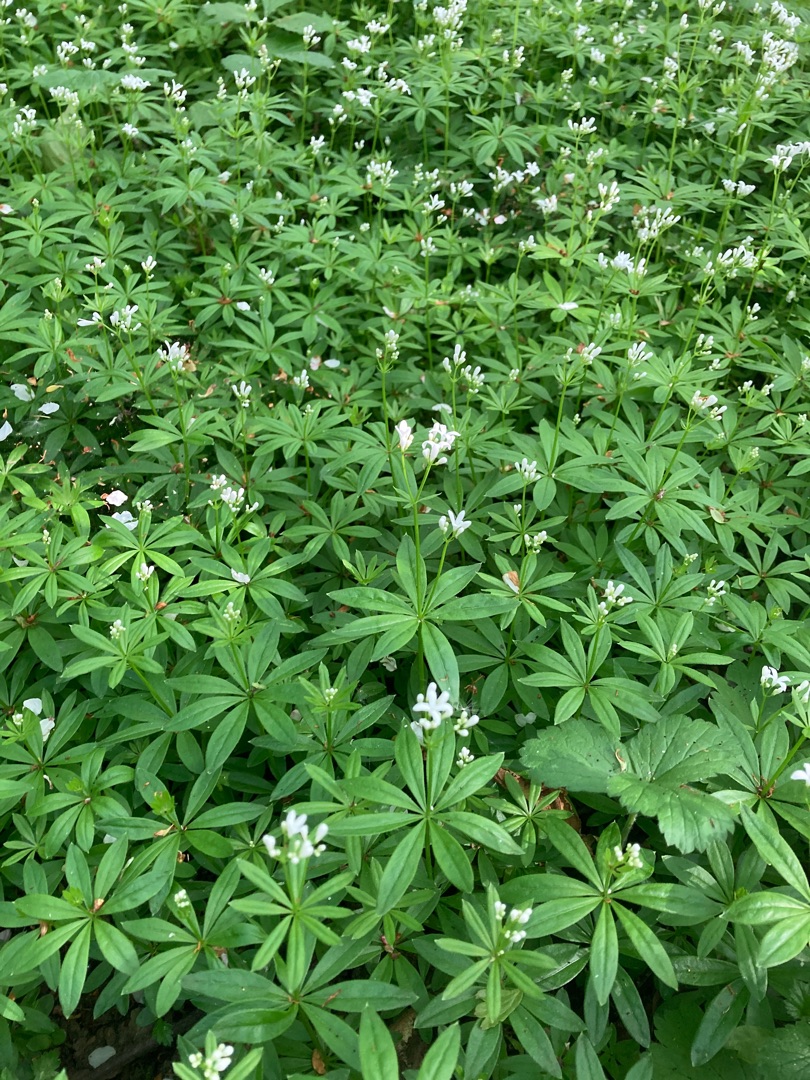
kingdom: Plantae
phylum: Tracheophyta
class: Magnoliopsida
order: Gentianales
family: Rubiaceae
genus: Galium
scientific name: Galium odoratum
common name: Skovmærke
